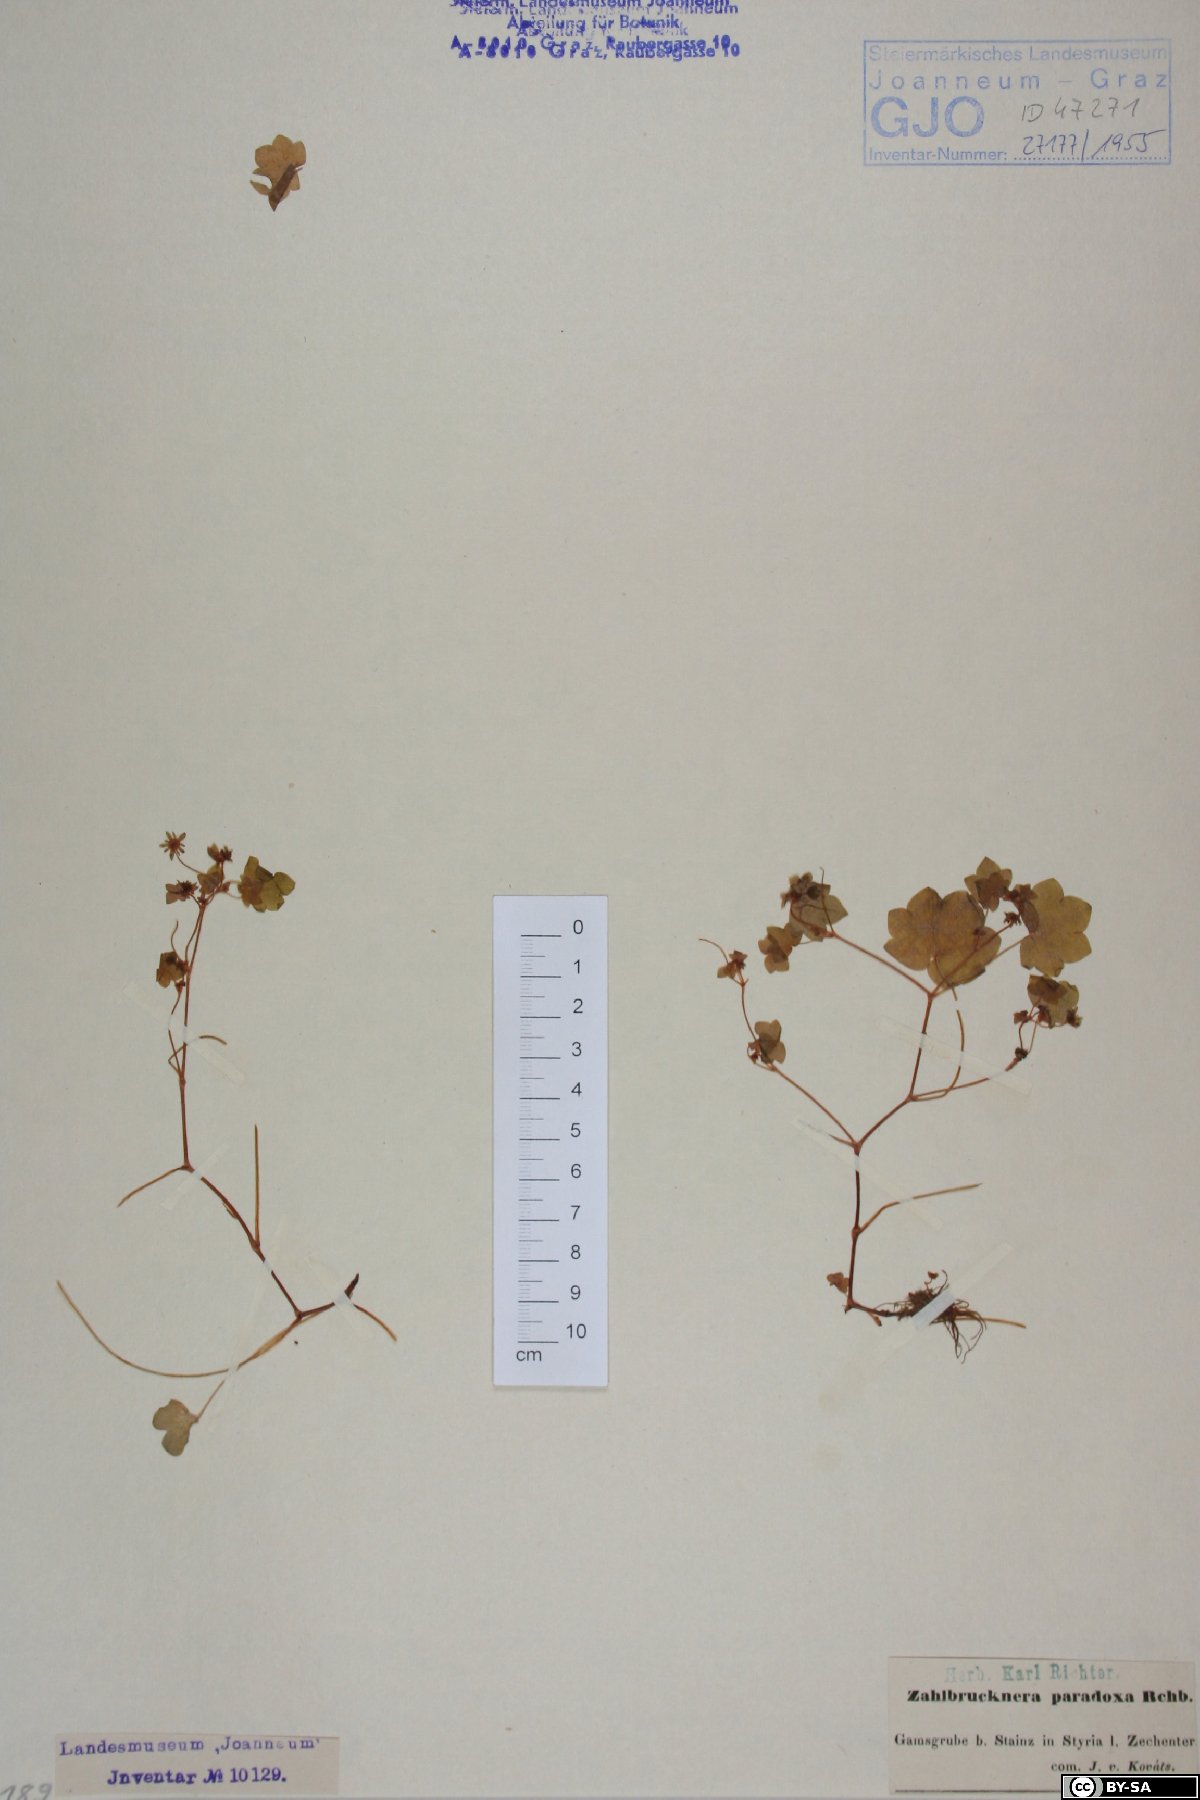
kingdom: Plantae
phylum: Tracheophyta
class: Magnoliopsida
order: Saxifragales
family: Saxifragaceae
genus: Saxifraga
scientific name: Saxifraga paradoxa
